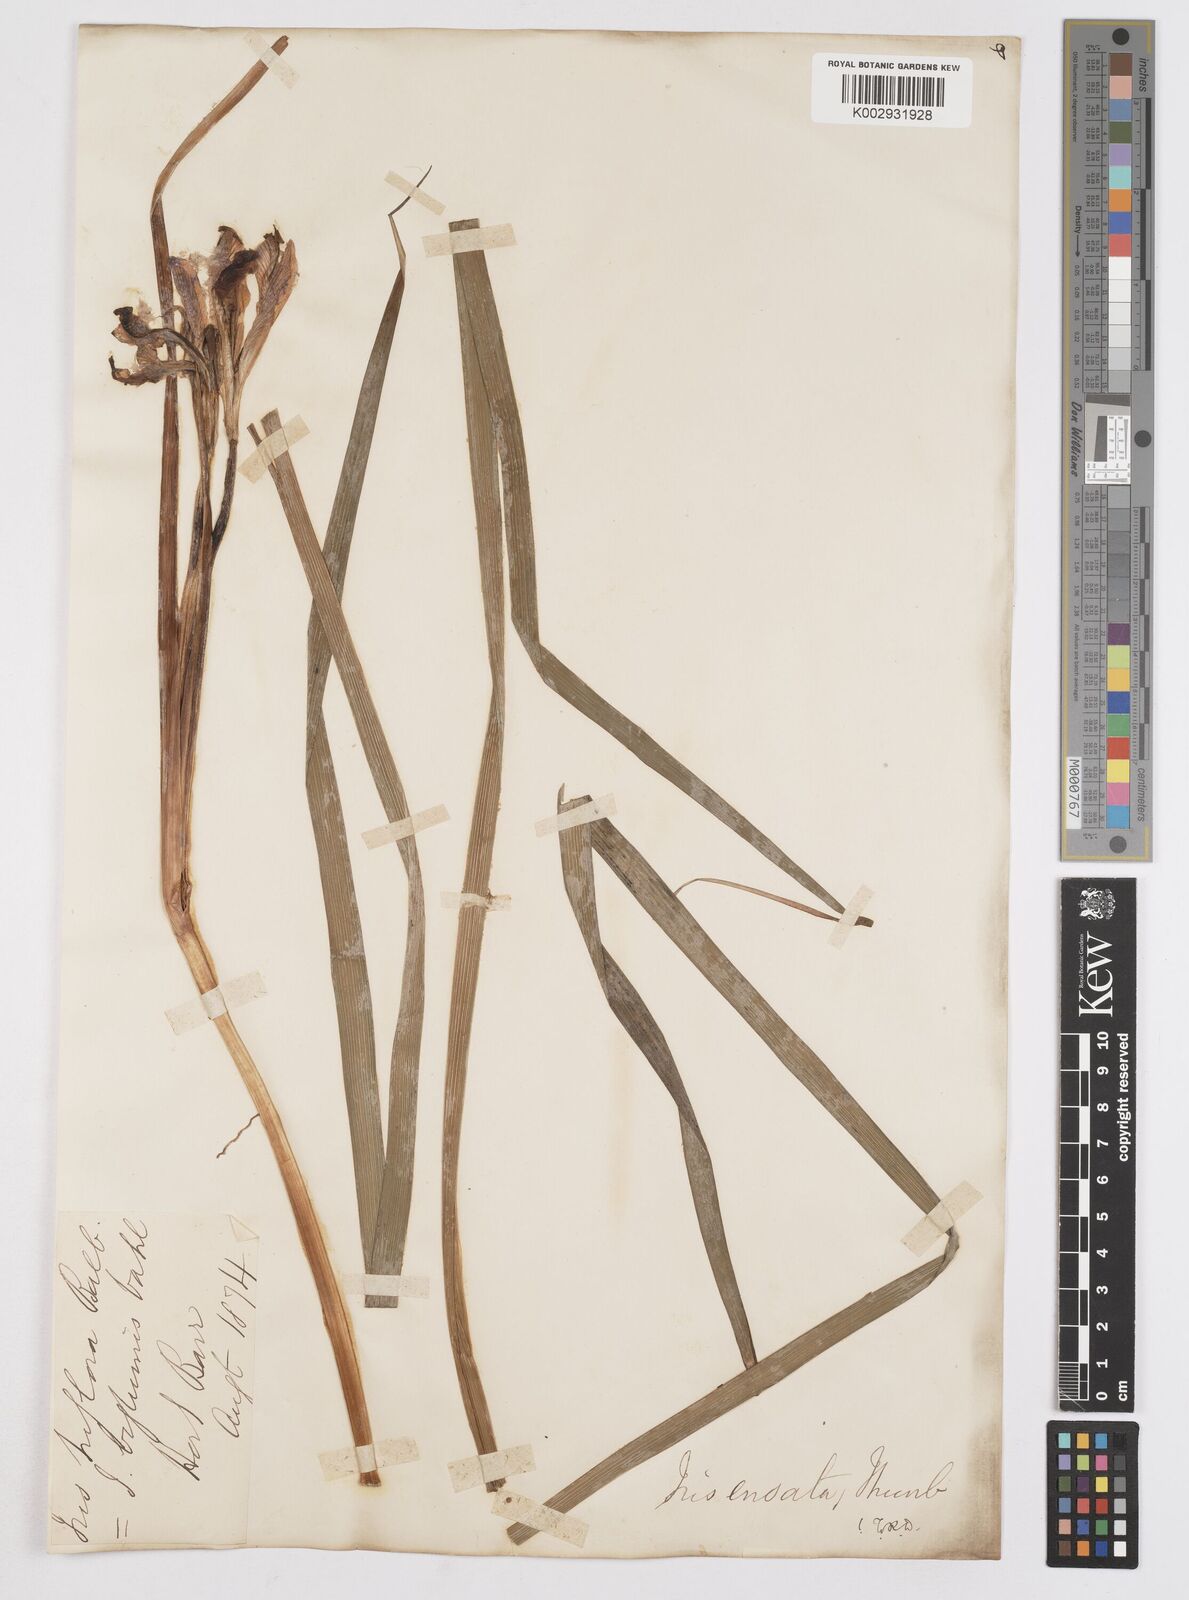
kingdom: Plantae
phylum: Tracheophyta
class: Liliopsida
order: Asparagales
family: Iridaceae
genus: Iris
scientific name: Iris ensata
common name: Beaked iris
